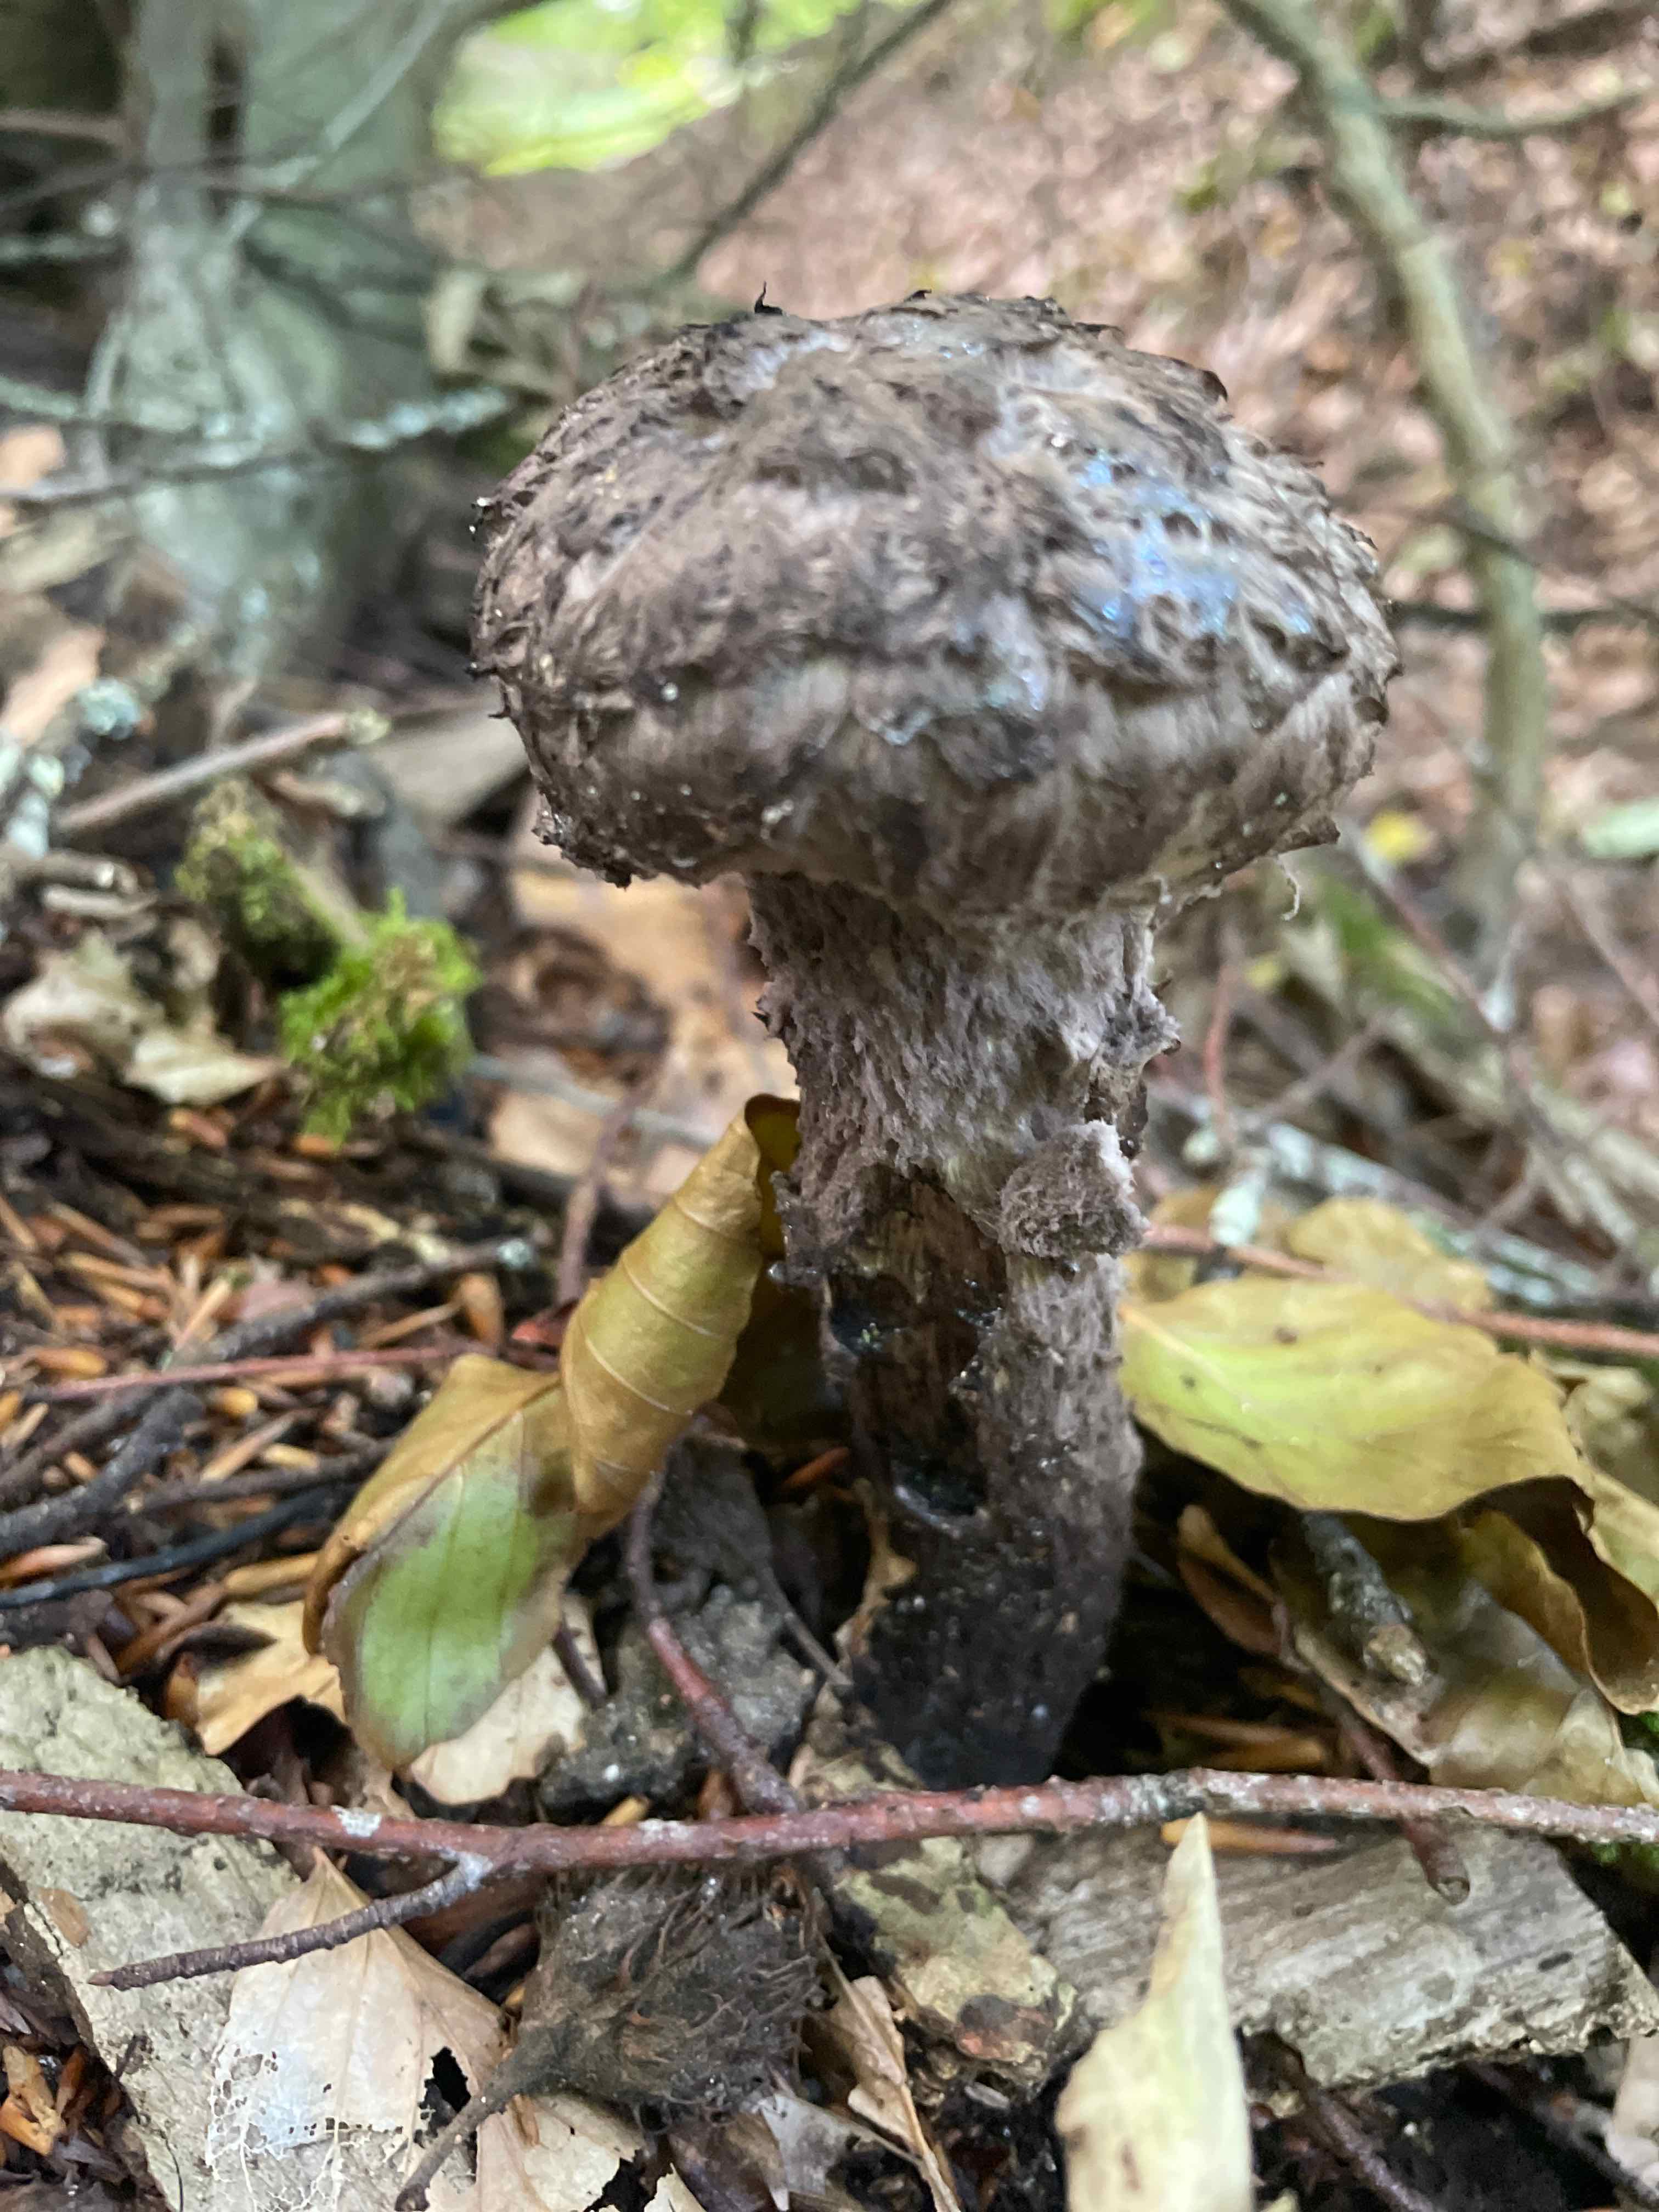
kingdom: Fungi
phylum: Basidiomycota
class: Agaricomycetes
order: Boletales
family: Boletaceae
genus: Strobilomyces
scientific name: Strobilomyces strobilaceus
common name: koglerørhat
